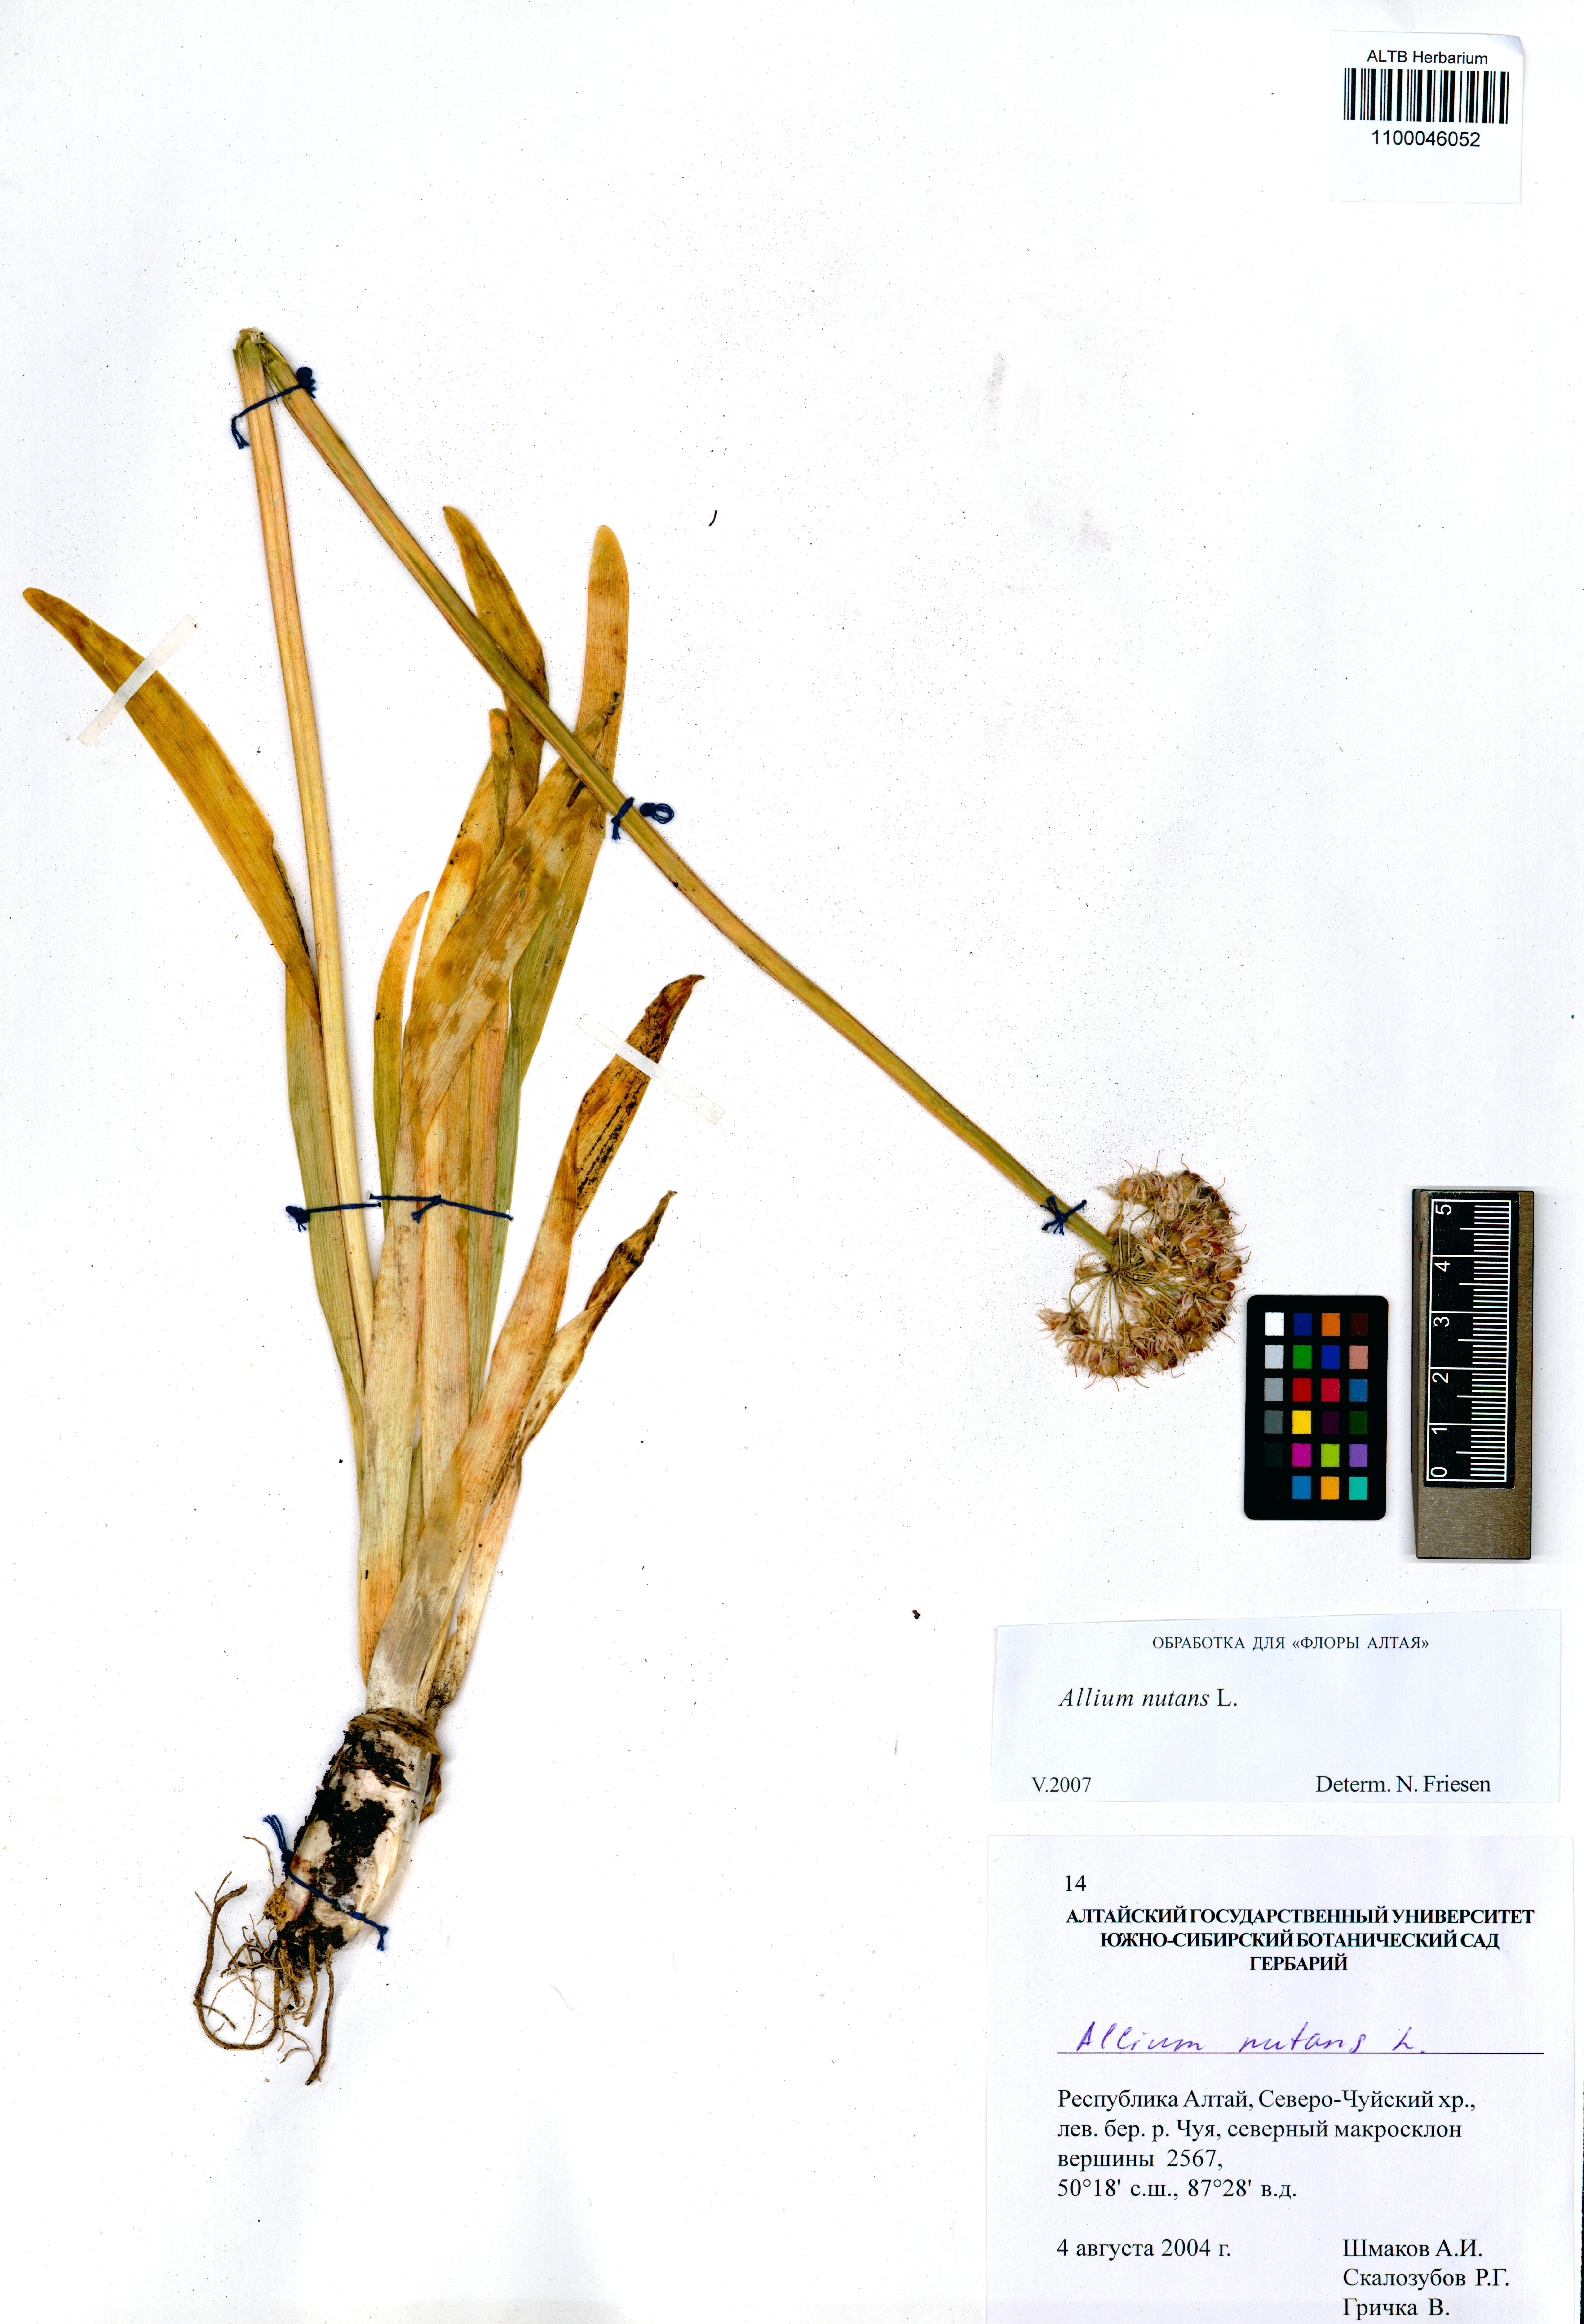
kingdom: Plantae
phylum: Tracheophyta
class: Liliopsida
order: Asparagales
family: Amaryllidaceae
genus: Allium
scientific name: Allium nutans
